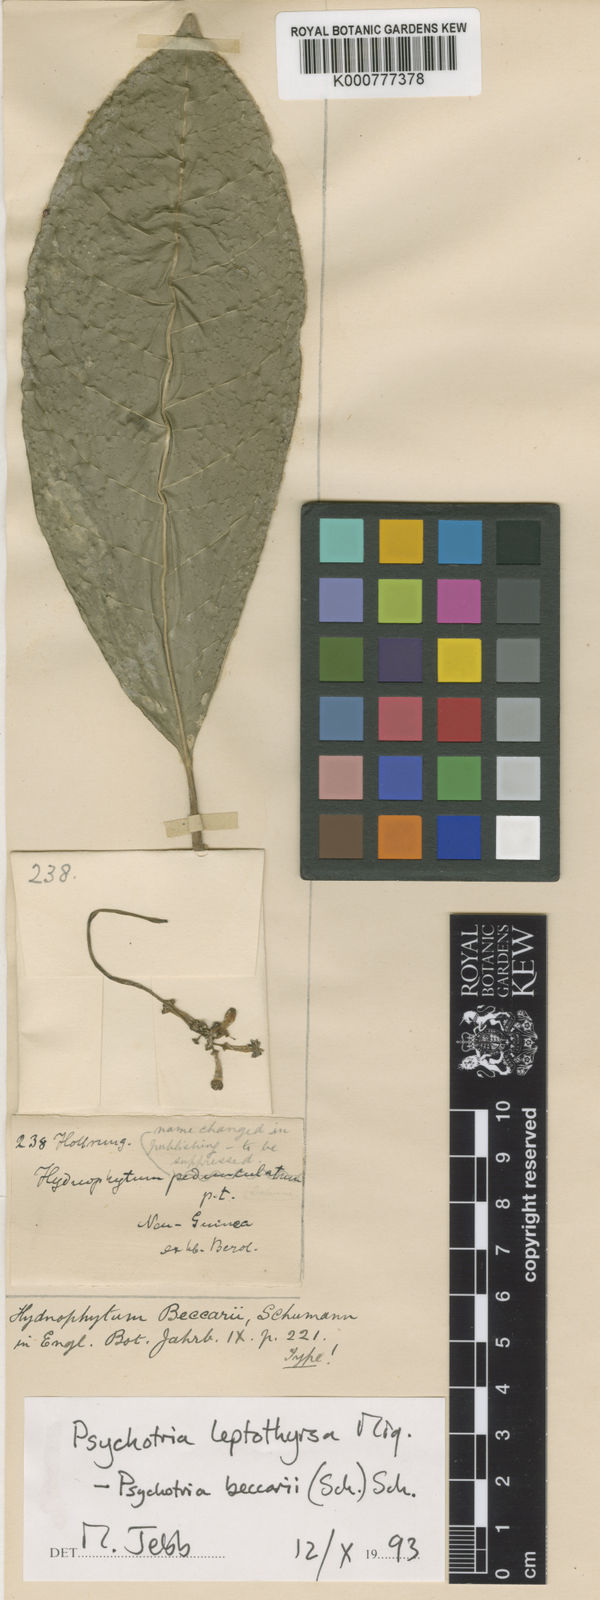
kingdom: Plantae
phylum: Tracheophyta
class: Magnoliopsida
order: Gentianales
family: Rubiaceae
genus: Eumachia
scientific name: Eumachia leptothyrsa
